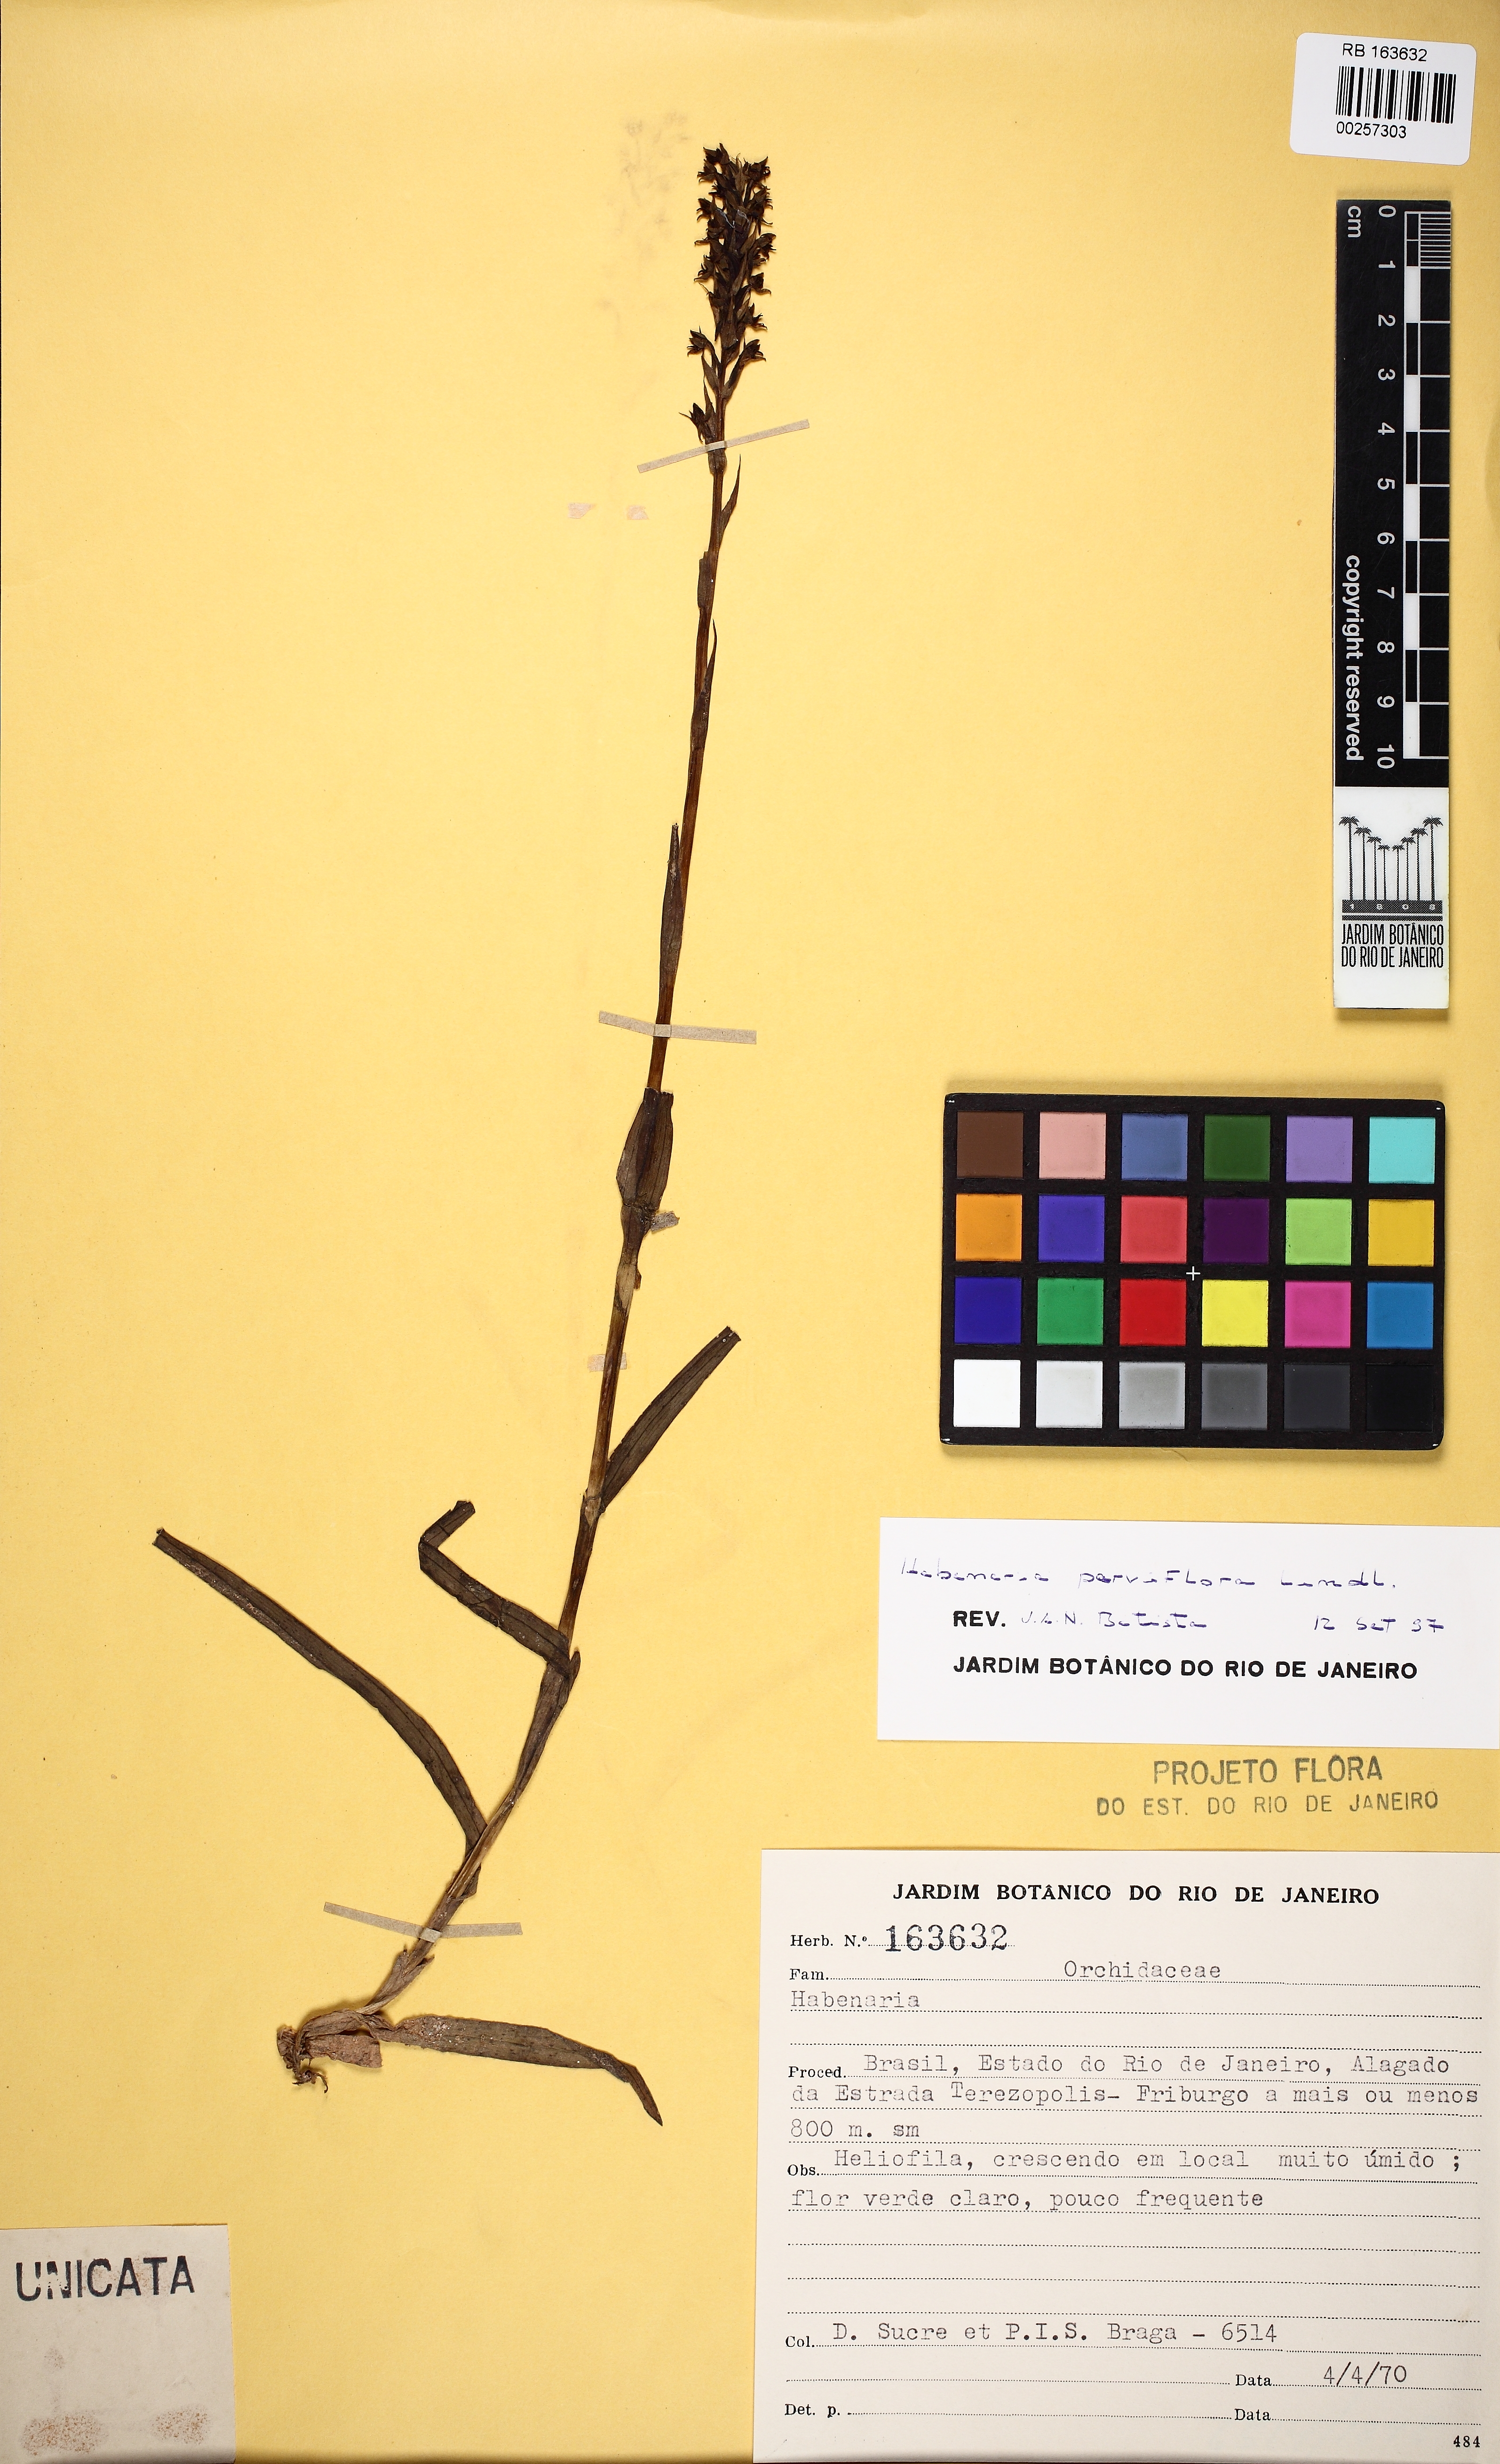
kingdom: Plantae
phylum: Tracheophyta
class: Liliopsida
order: Asparagales
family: Orchidaceae
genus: Habenaria
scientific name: Habenaria parviflora
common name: Small flowered habenaria
